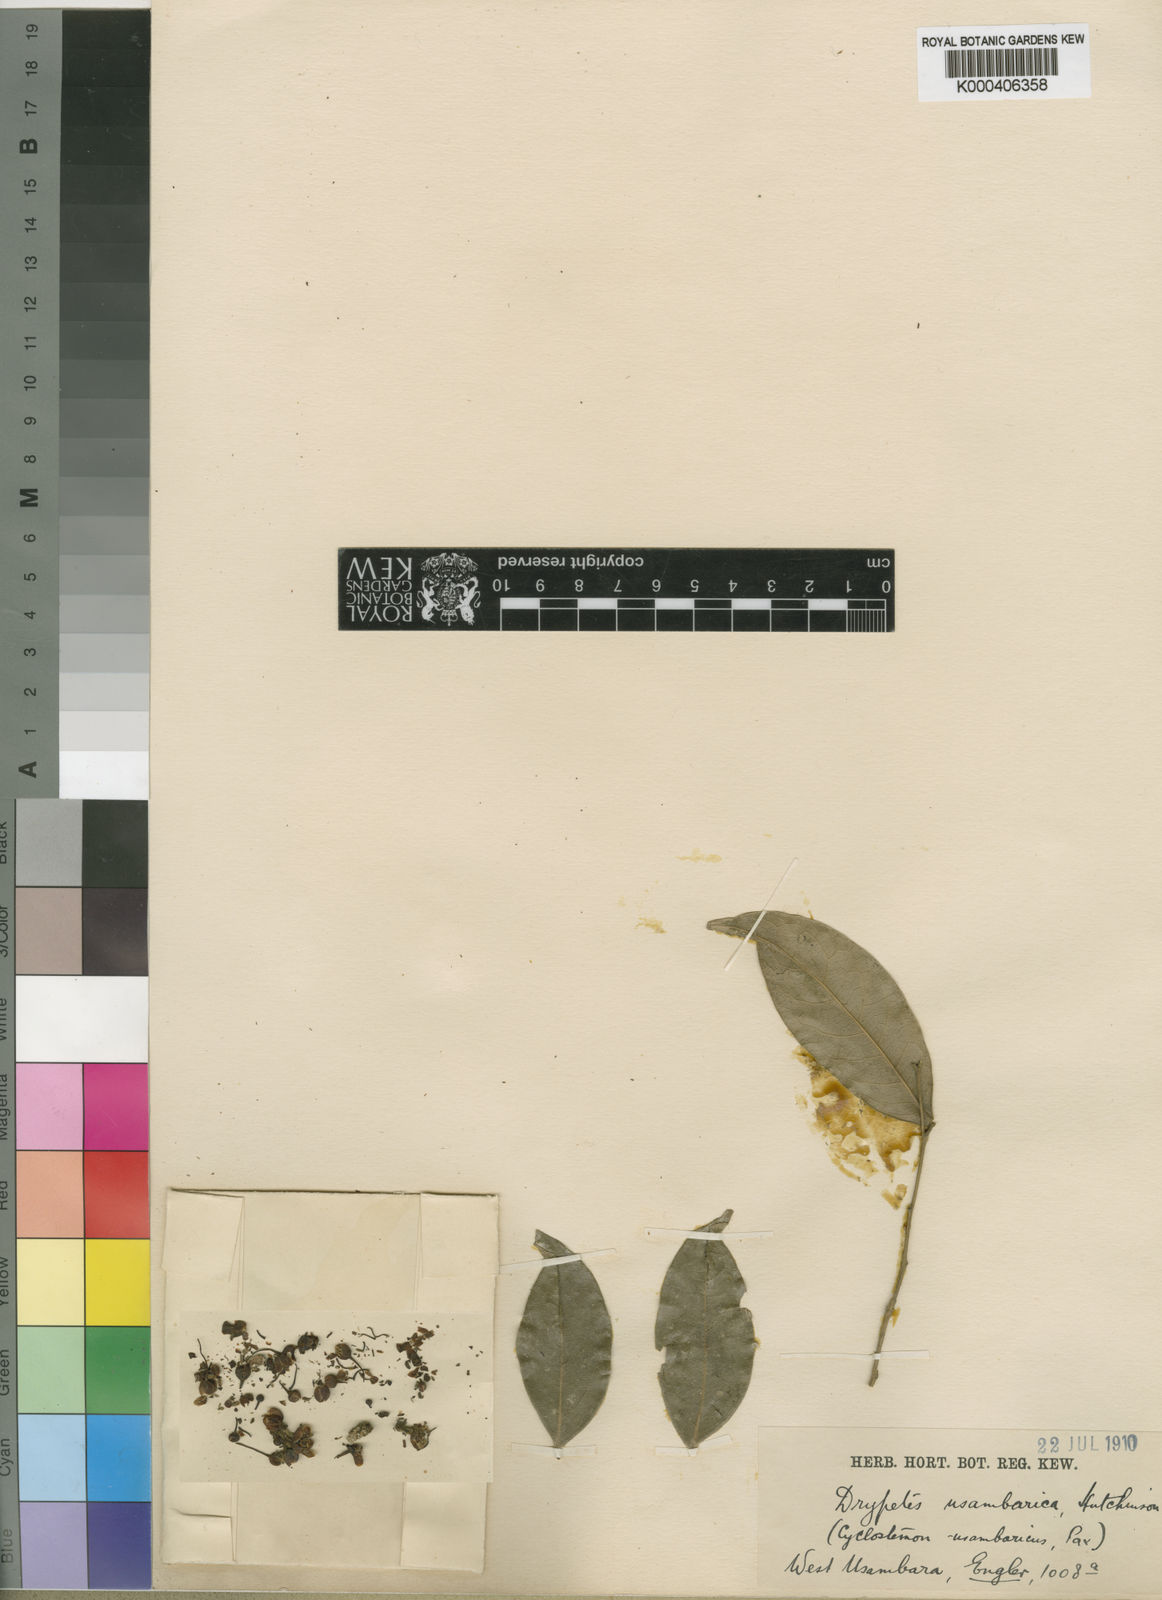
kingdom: Plantae
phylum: Tracheophyta
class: Magnoliopsida
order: Malpighiales
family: Putranjivaceae
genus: Drypetes
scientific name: Drypetes usambarica
